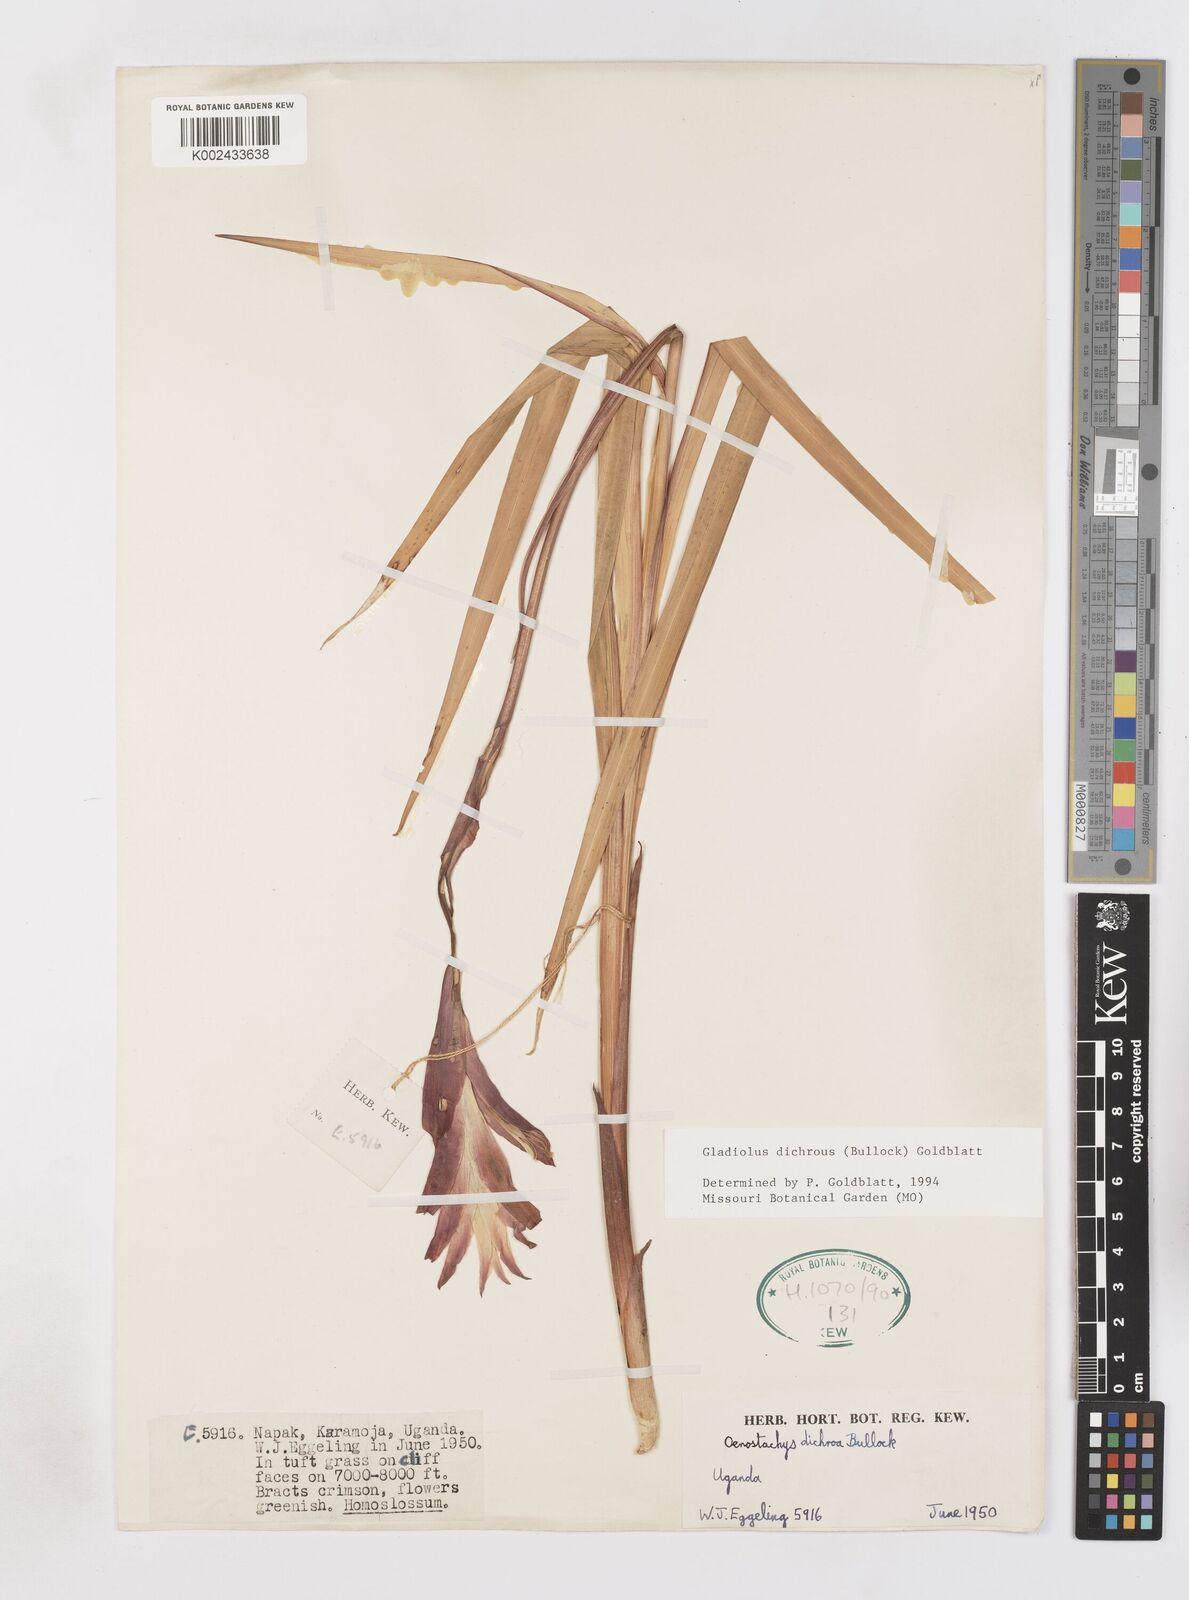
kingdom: Plantae
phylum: Tracheophyta
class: Liliopsida
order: Asparagales
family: Iridaceae
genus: Gladiolus
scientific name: Gladiolus dichrous
